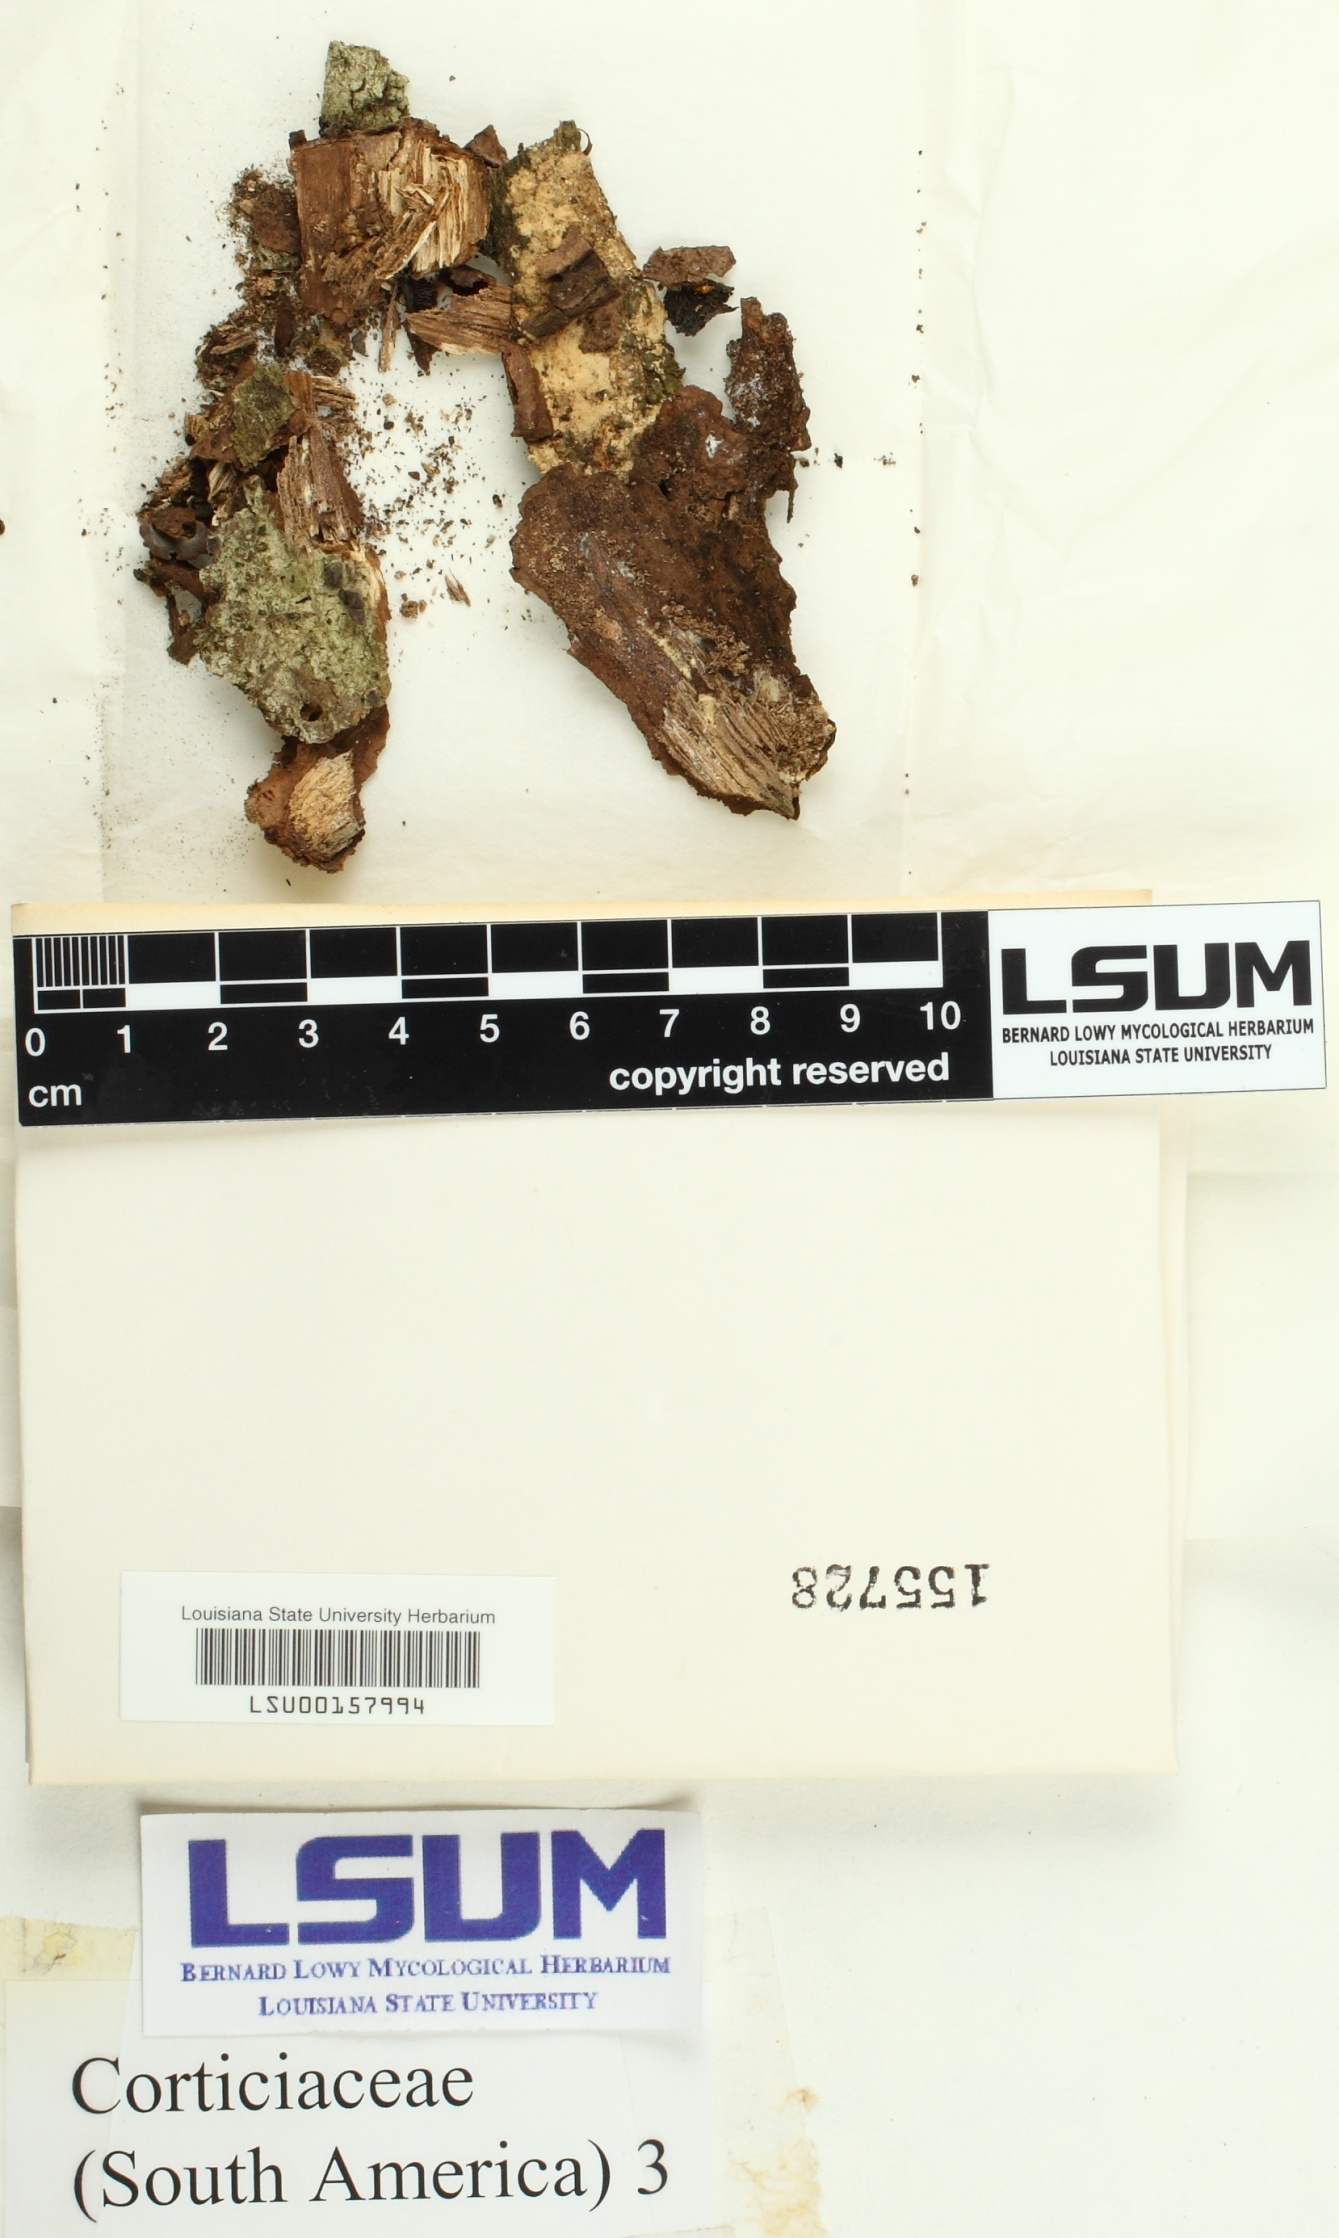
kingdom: Fungi
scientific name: Fungi
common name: Fungi
